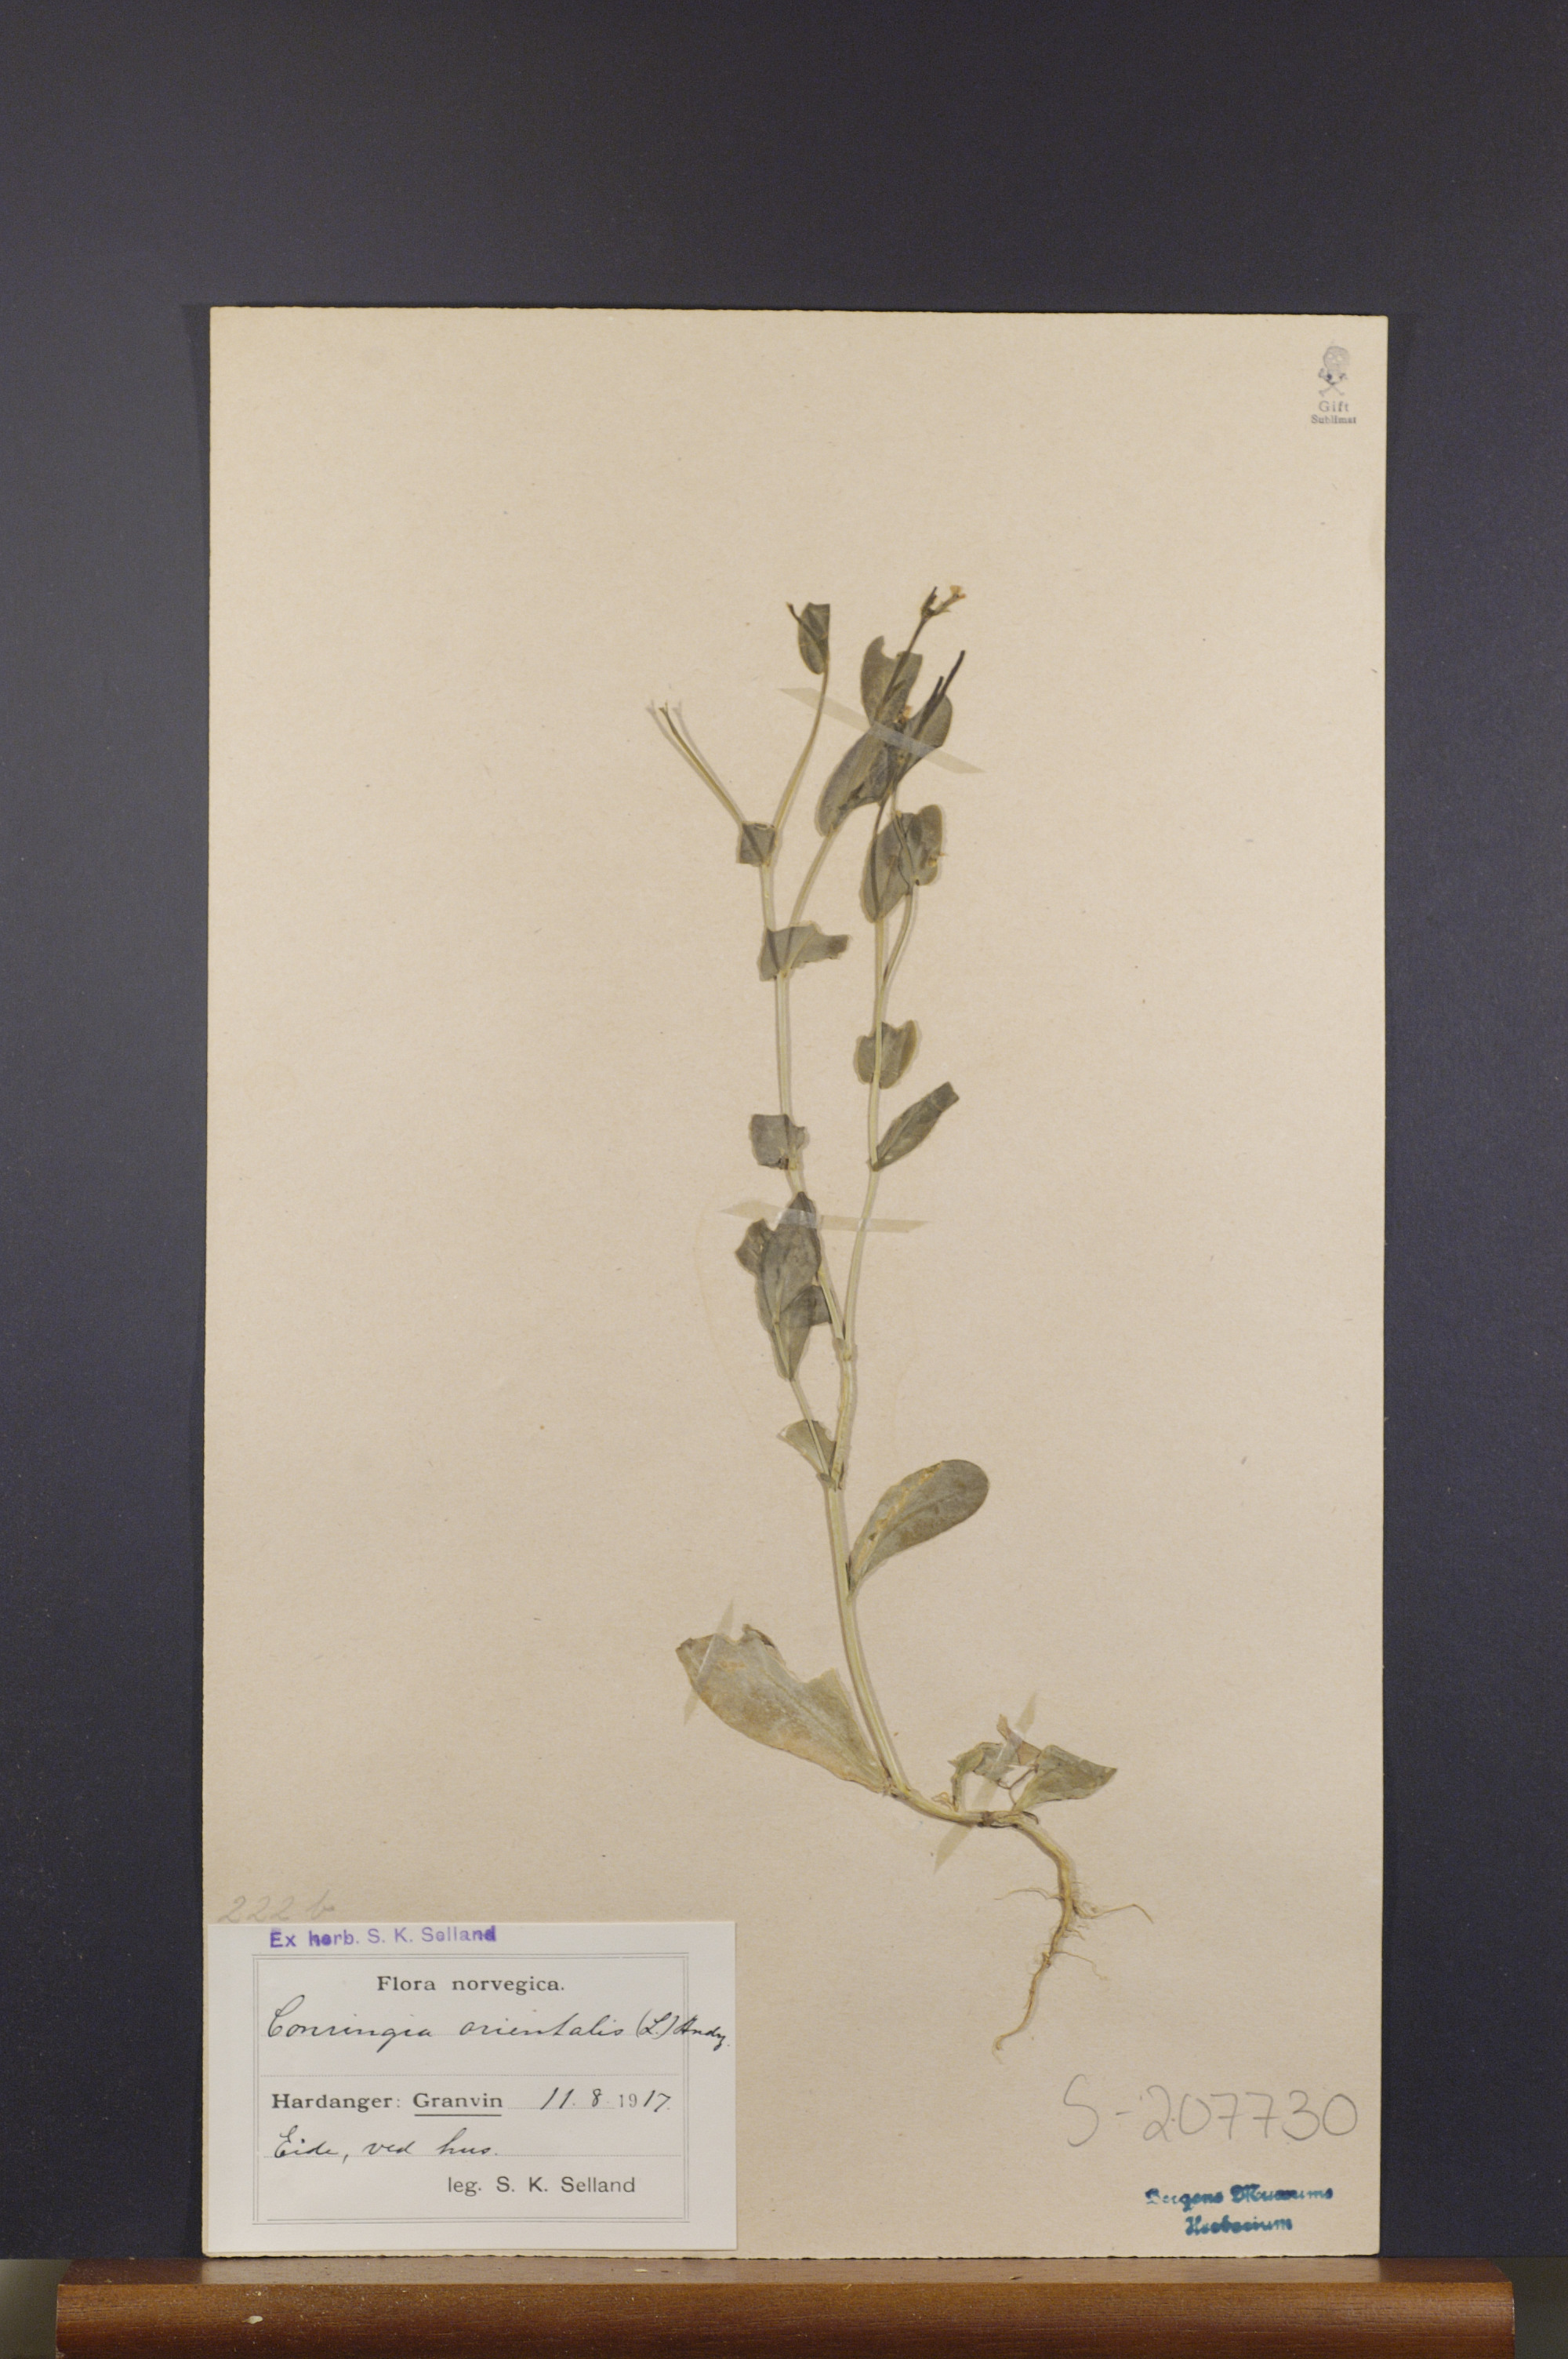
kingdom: Plantae
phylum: Tracheophyta
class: Magnoliopsida
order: Brassicales
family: Brassicaceae
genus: Conringia
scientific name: Conringia orientalis
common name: Hare's ear mustard
